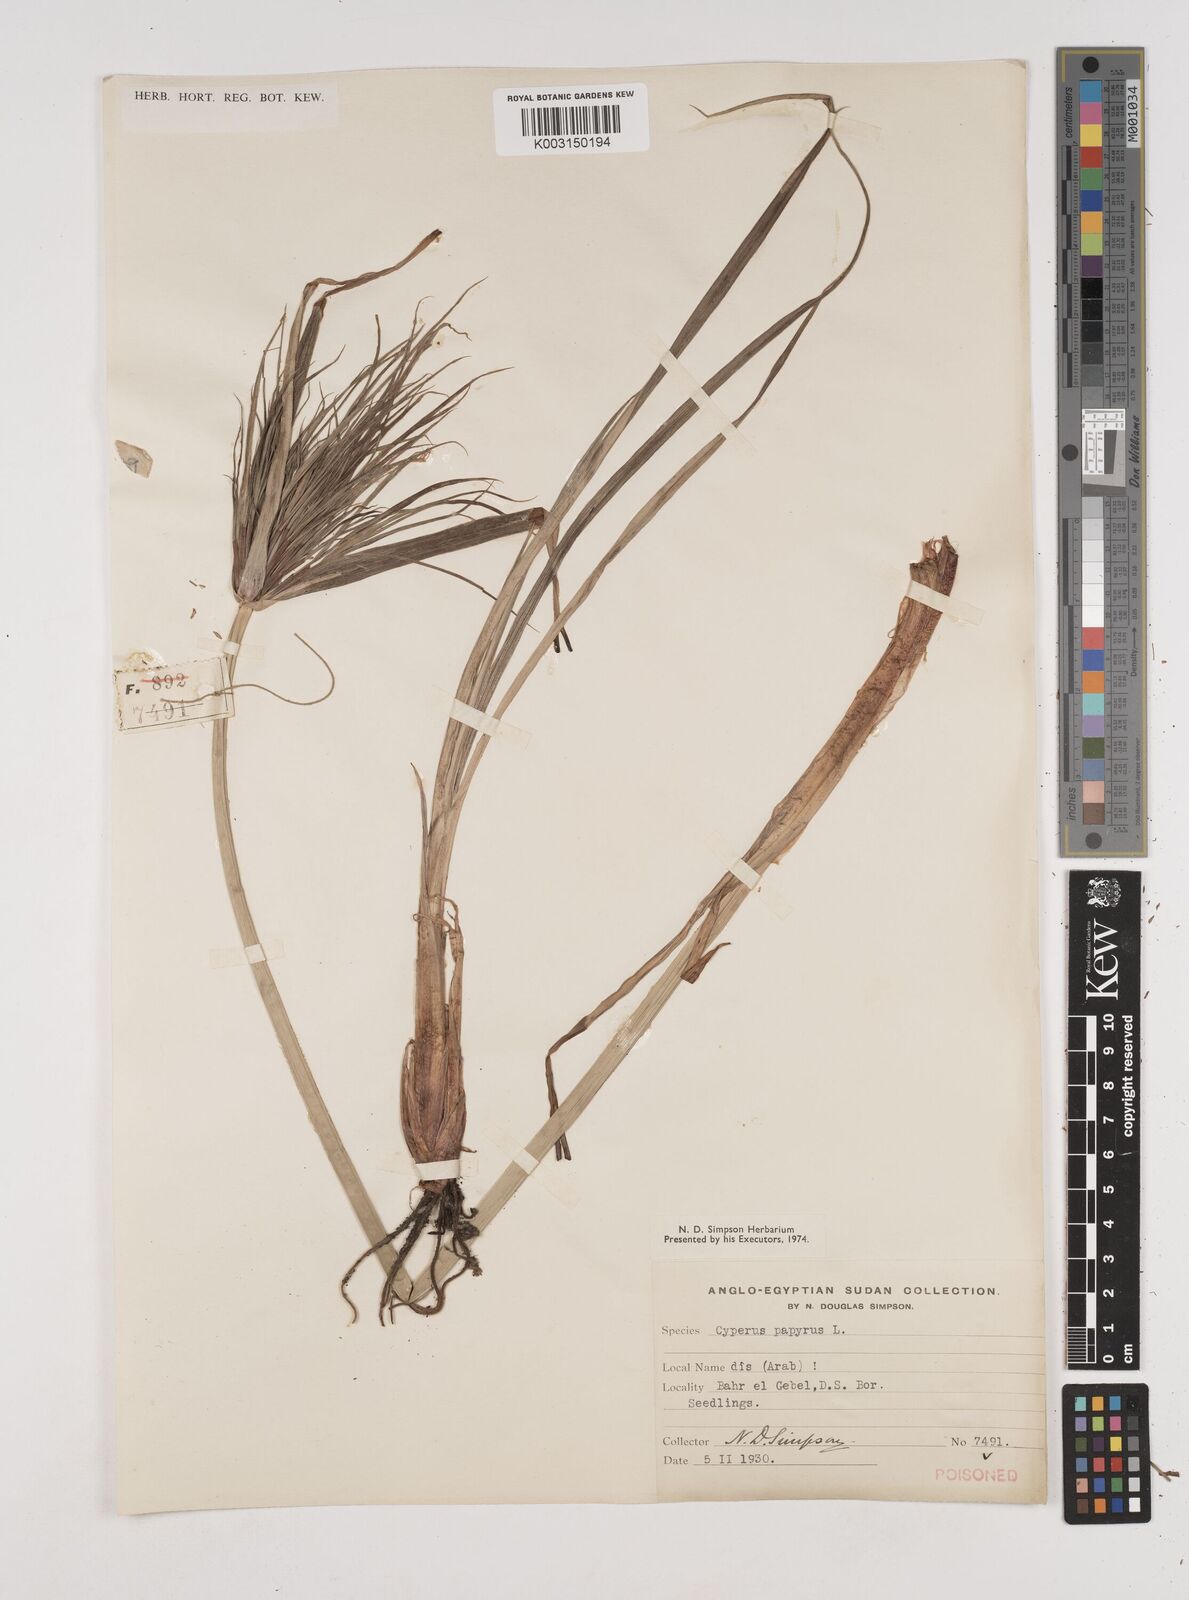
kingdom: Plantae
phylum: Tracheophyta
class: Liliopsida
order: Poales
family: Cyperaceae
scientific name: Cyperaceae
